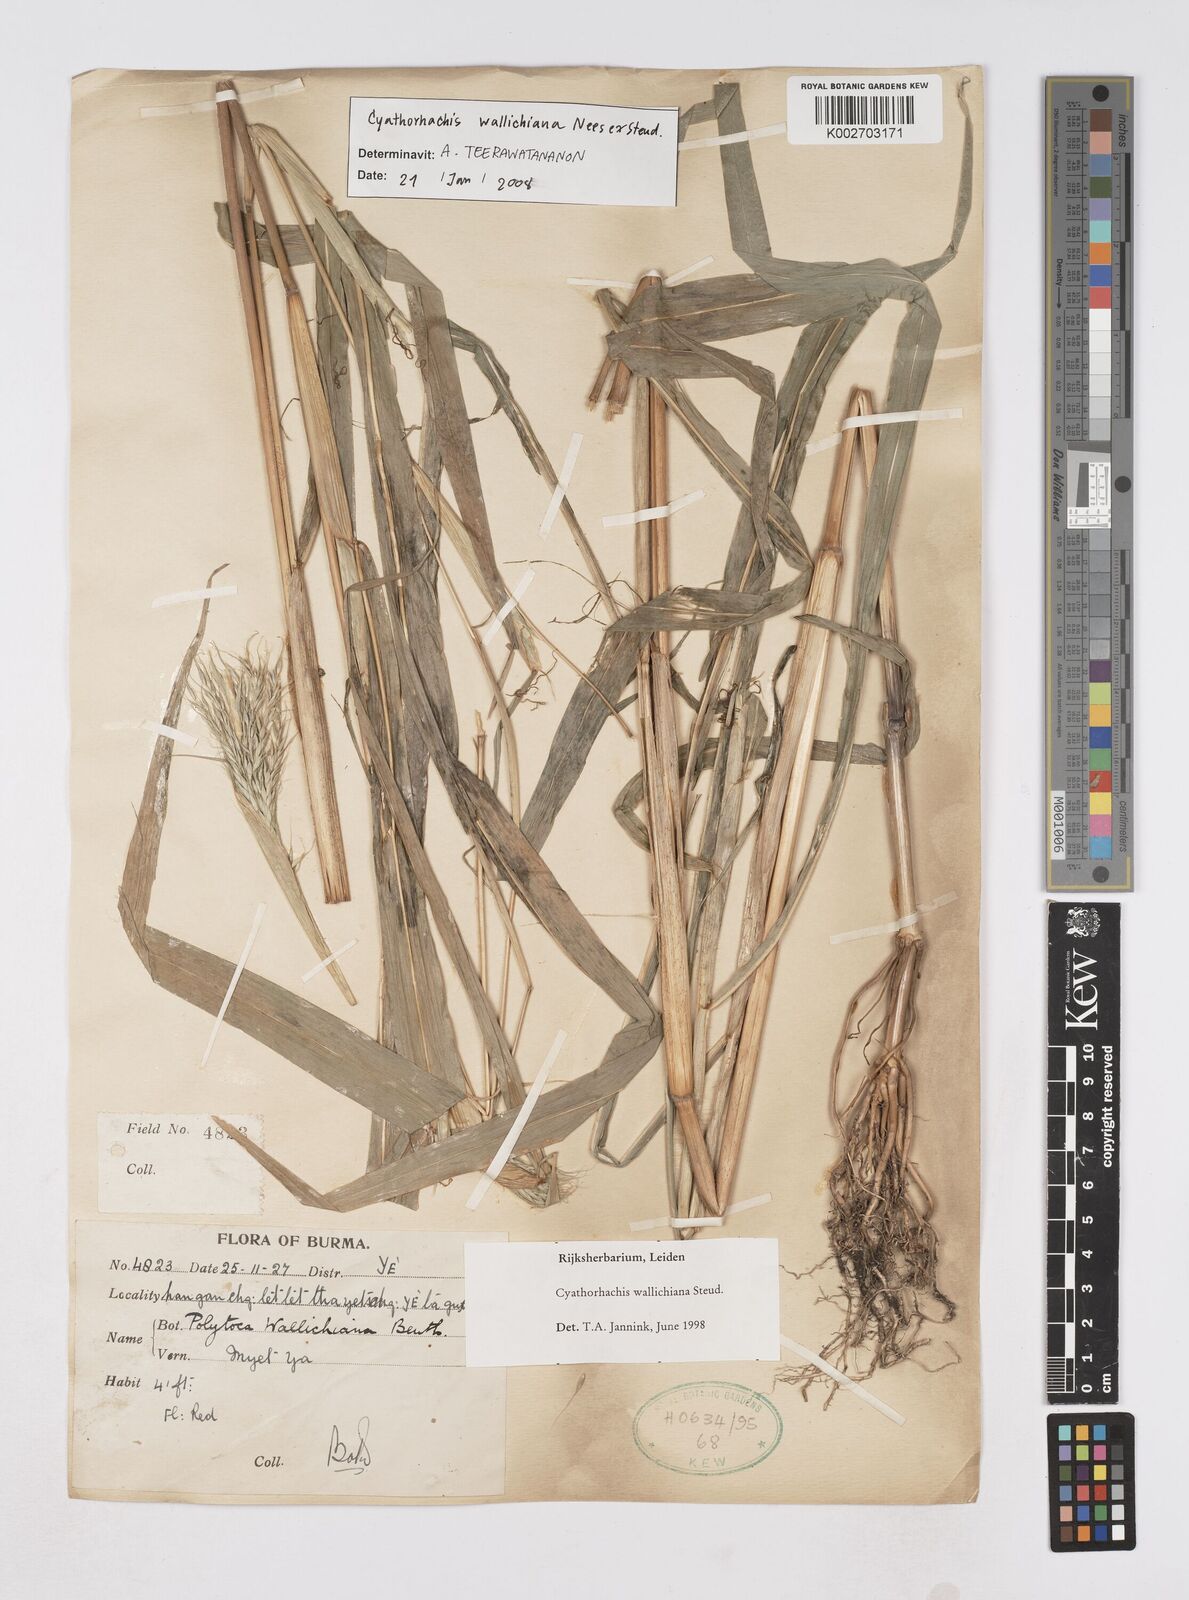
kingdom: Plantae
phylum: Tracheophyta
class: Liliopsida
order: Poales
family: Poaceae
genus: Polytoca
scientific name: Polytoca wallichiana
